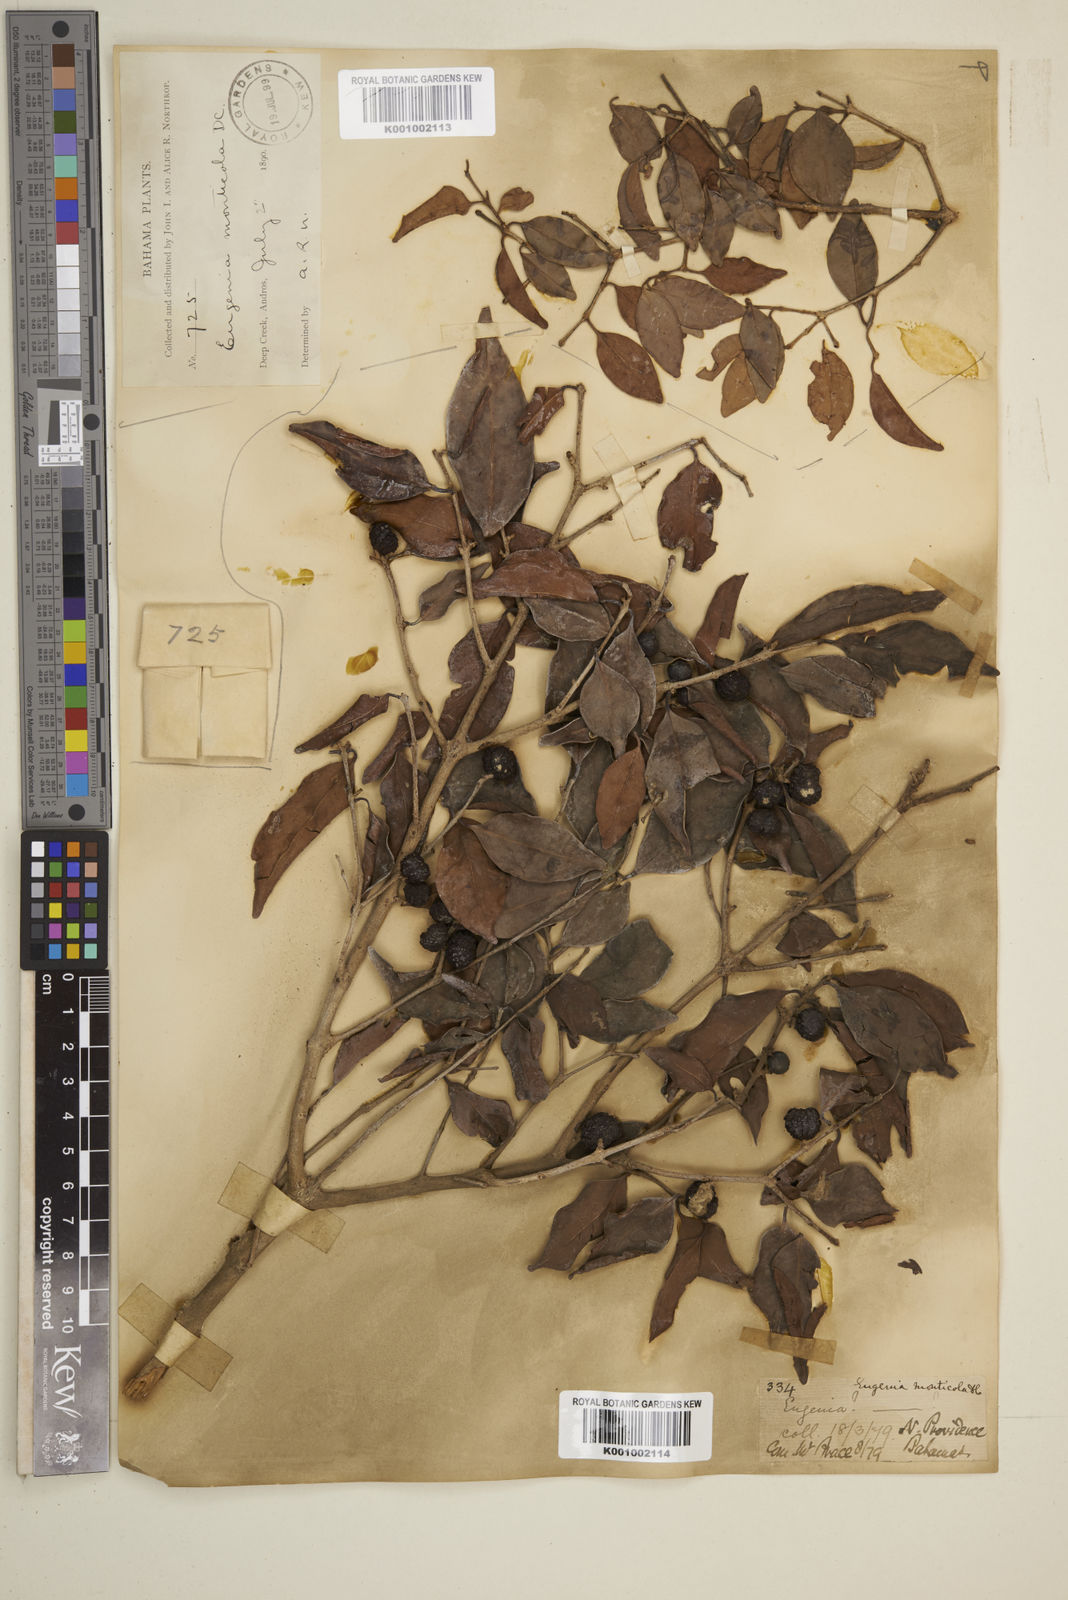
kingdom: Plantae
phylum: Tracheophyta
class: Magnoliopsida
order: Myrtales
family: Myrtaceae
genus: Eugenia
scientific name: Eugenia monticola
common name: Birds berry
